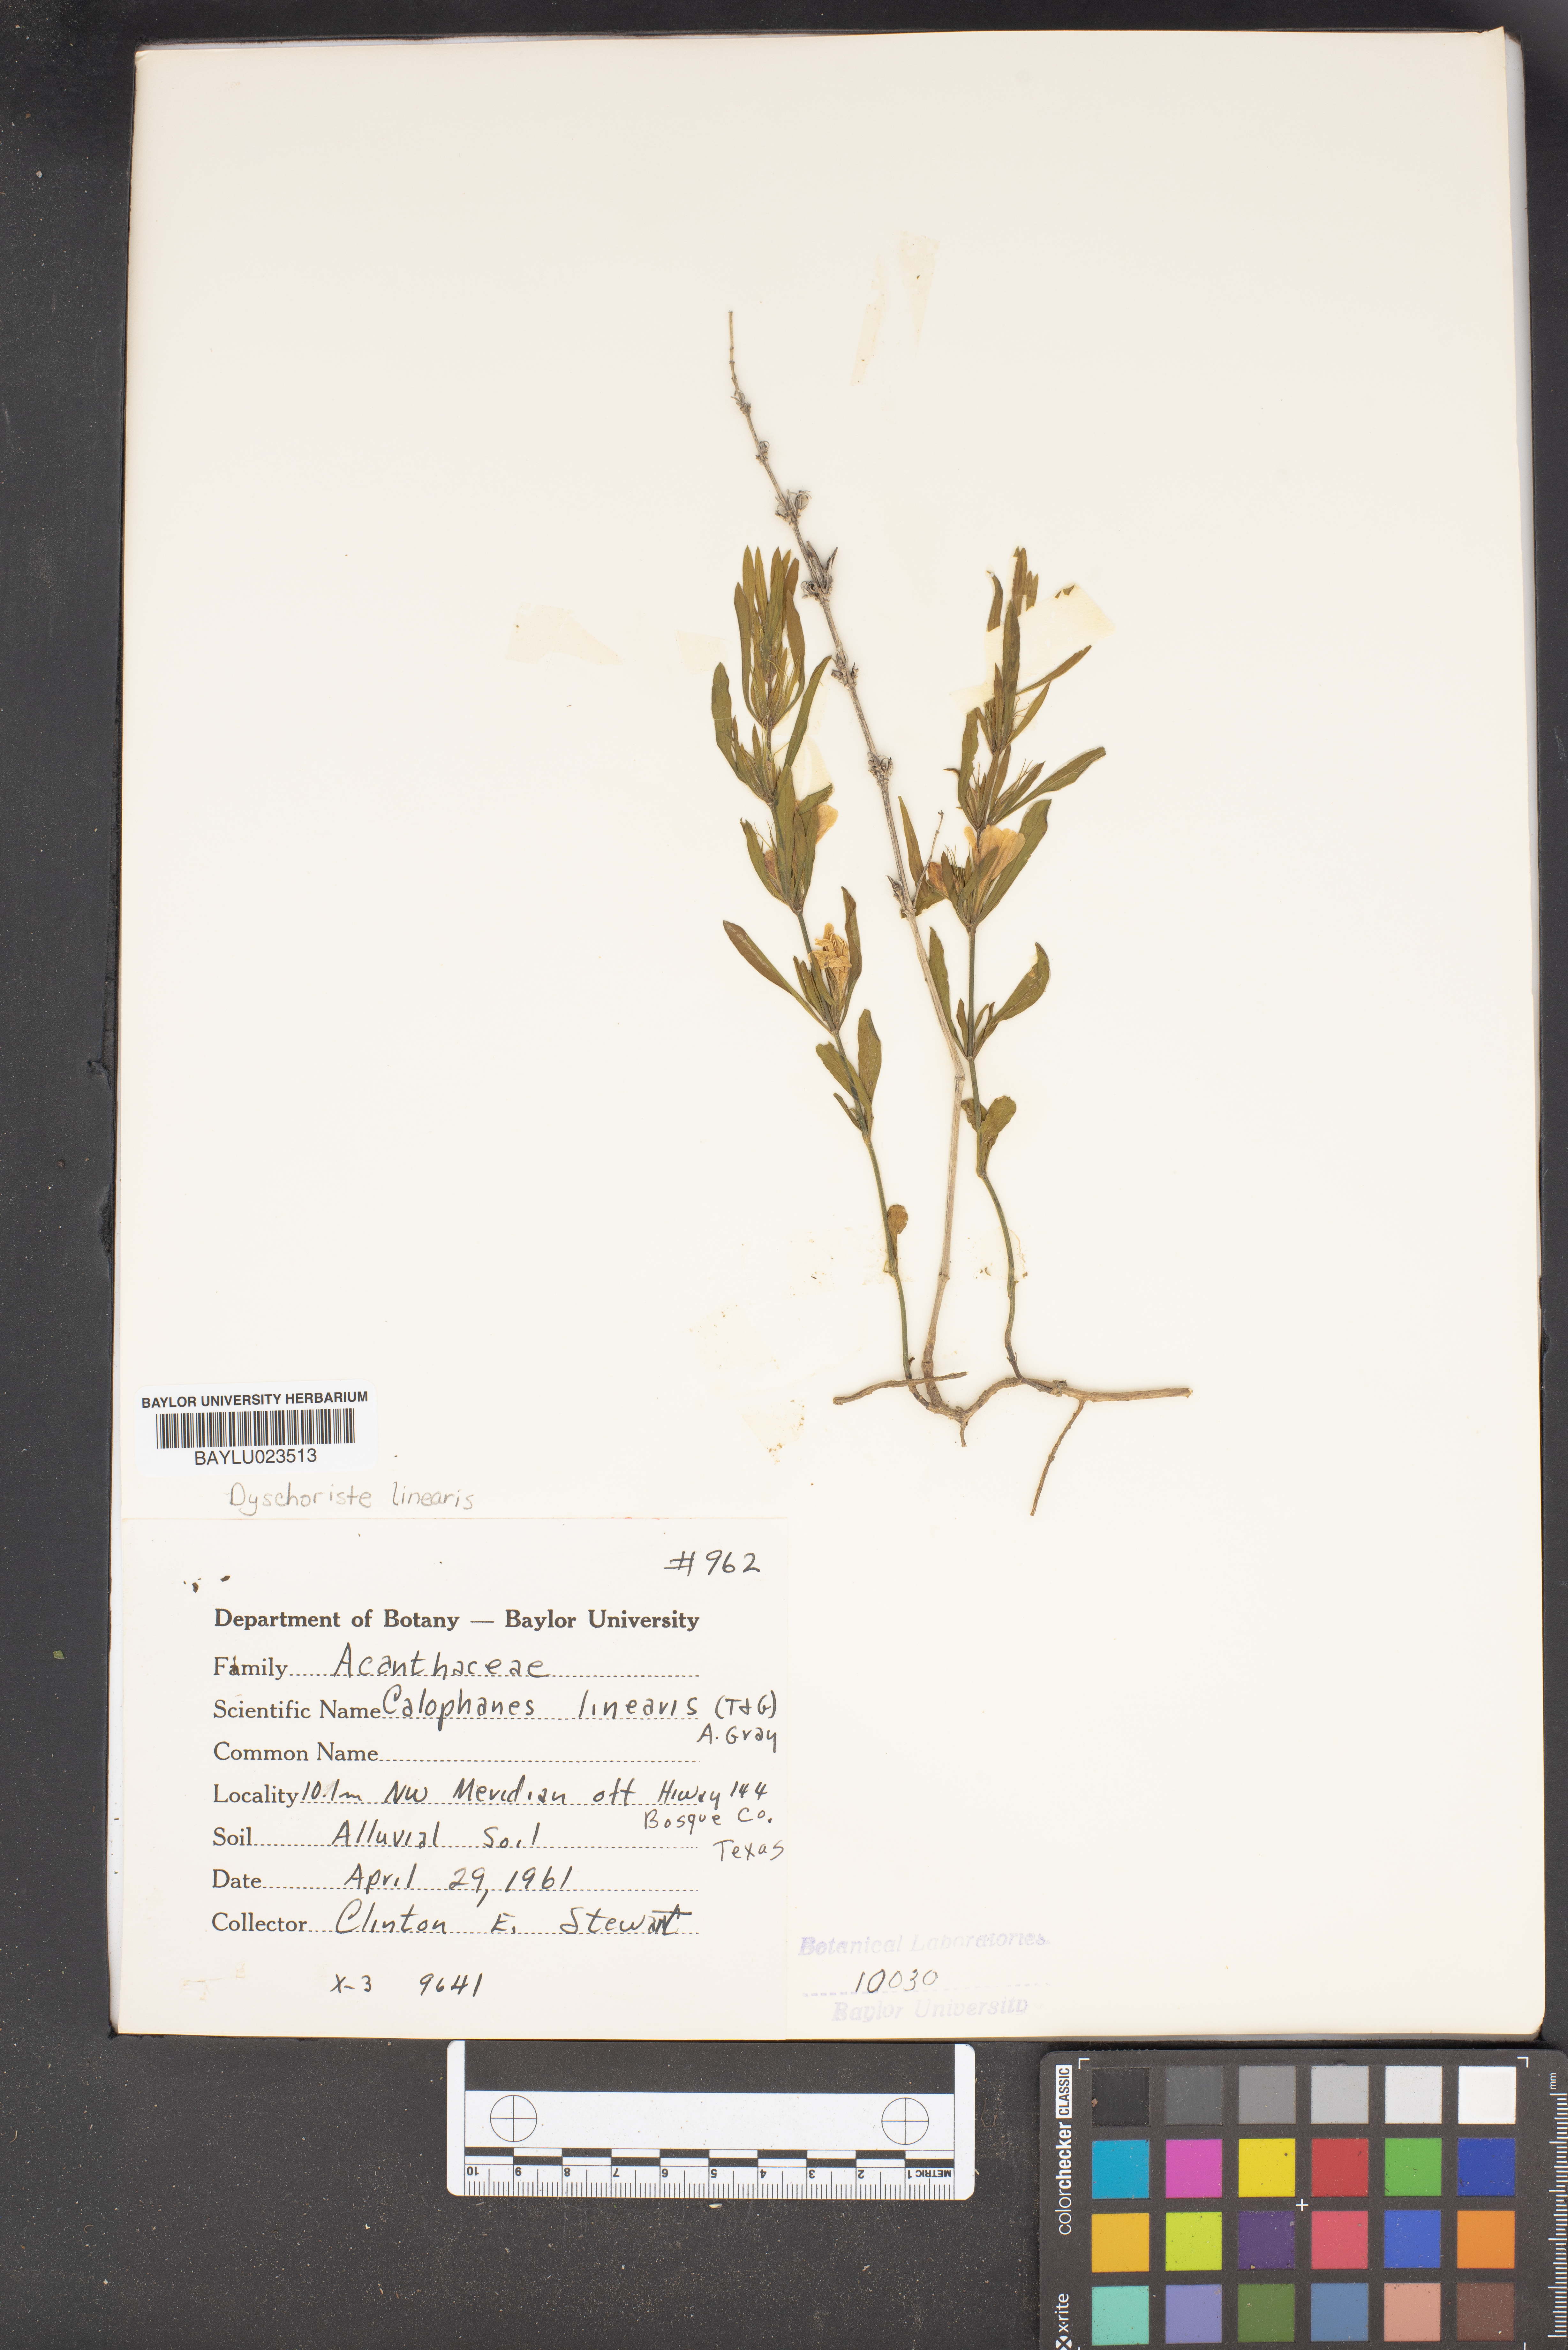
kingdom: Plantae
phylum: Tracheophyta
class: Magnoliopsida
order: Lamiales
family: Acanthaceae
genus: Dyschoriste
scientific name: Dyschoriste linearis
